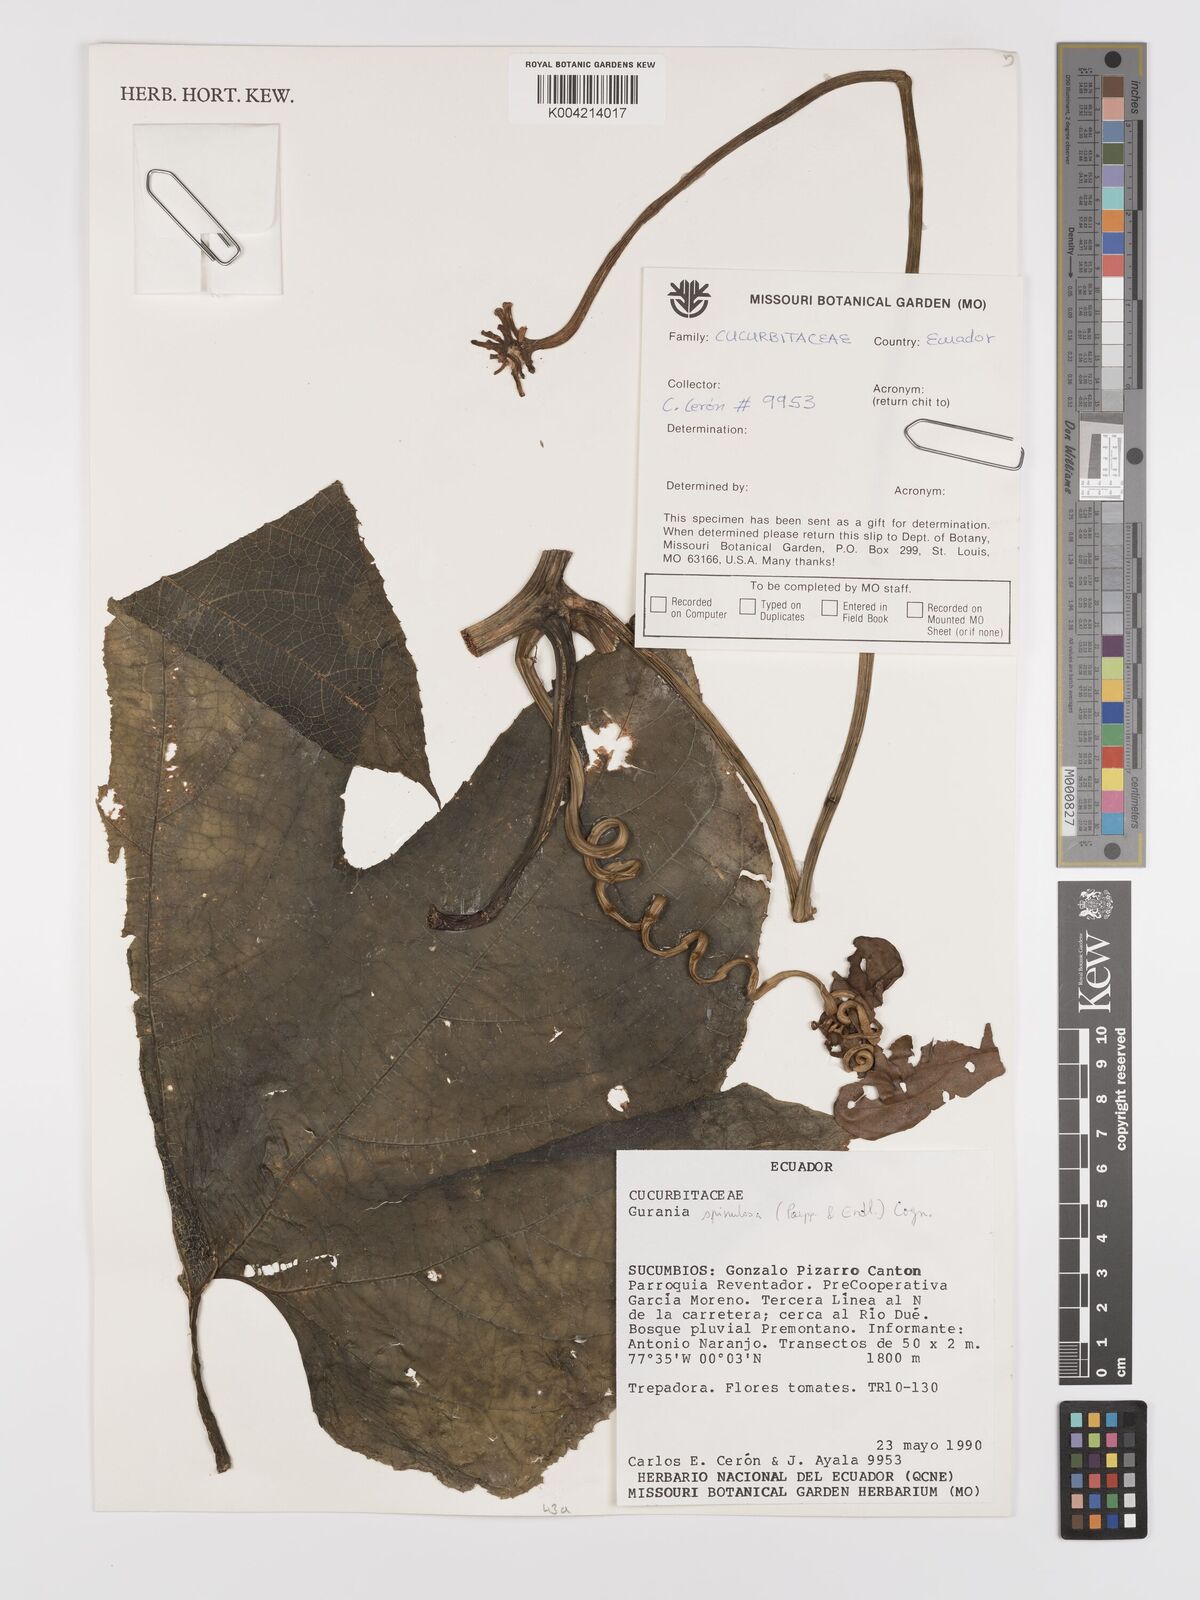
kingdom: Plantae
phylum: Tracheophyta
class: Magnoliopsida
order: Cucurbitales
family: Cucurbitaceae
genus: Gurania
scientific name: Gurania lobata
